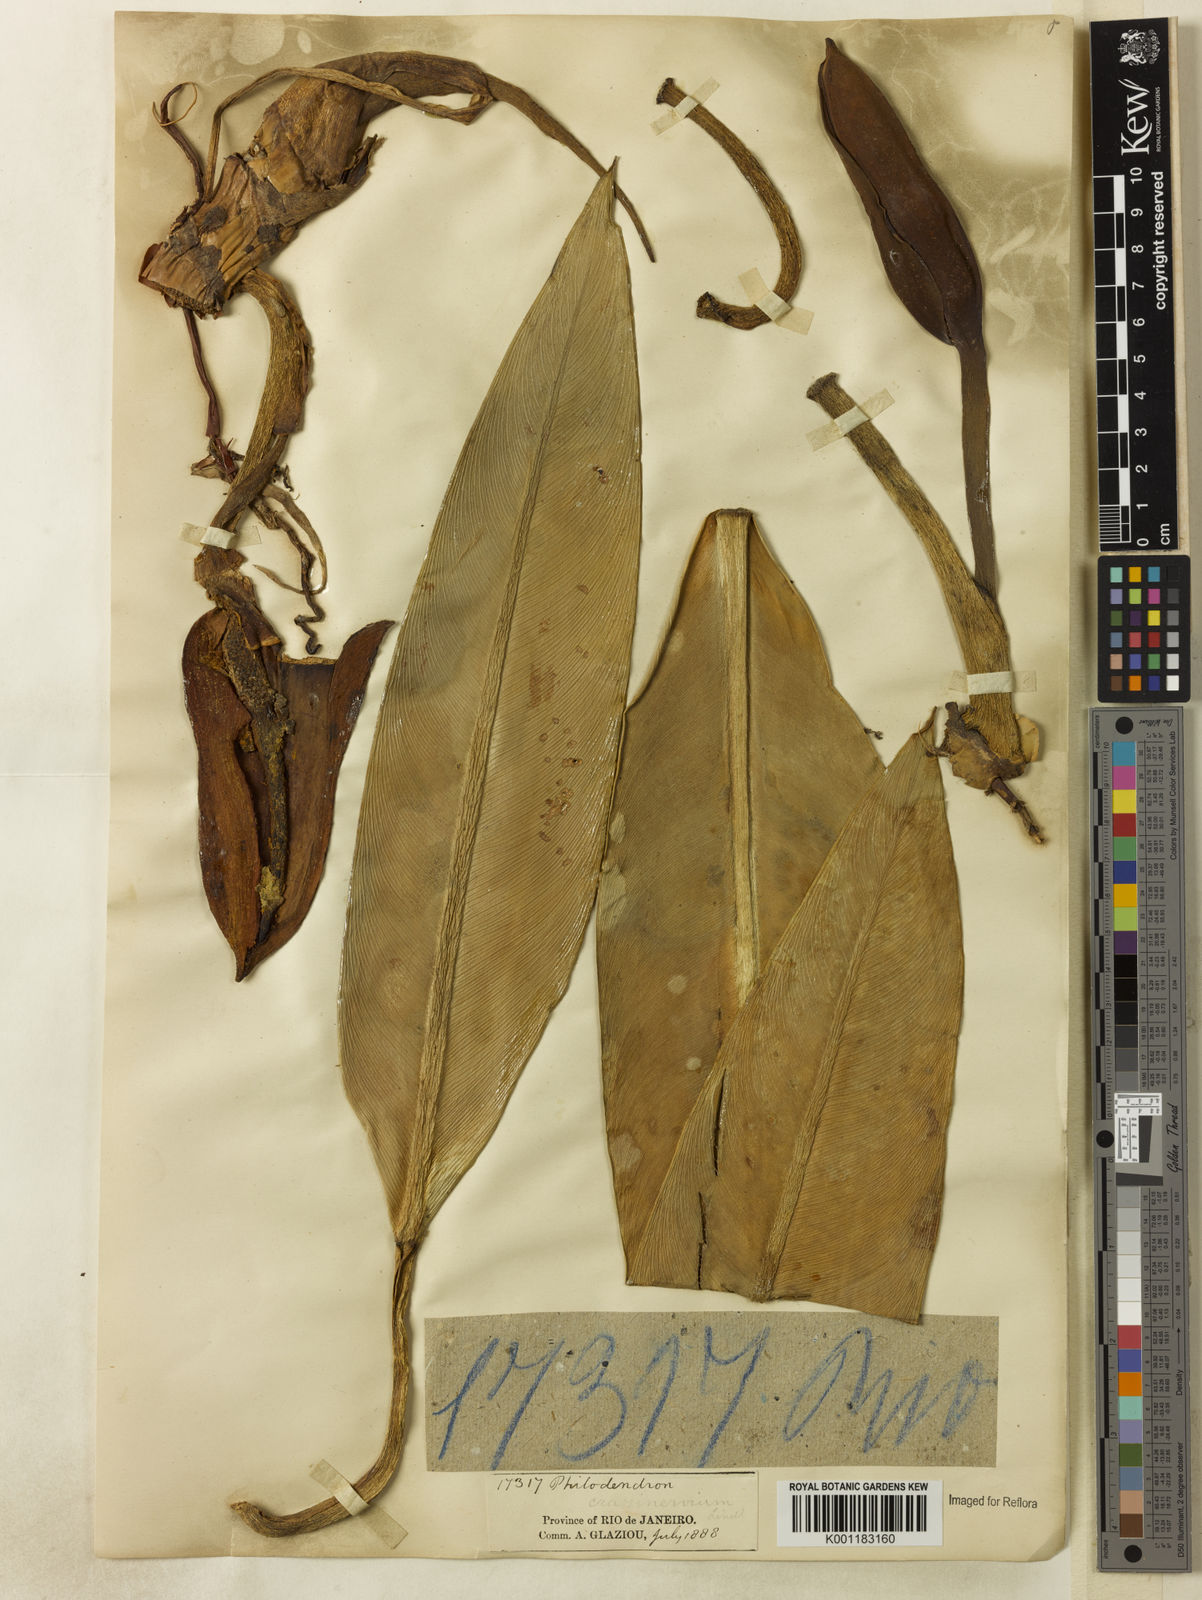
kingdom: Plantae
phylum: Tracheophyta
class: Liliopsida
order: Alismatales
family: Araceae
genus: Philodendron
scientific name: Philodendron crassinervium
